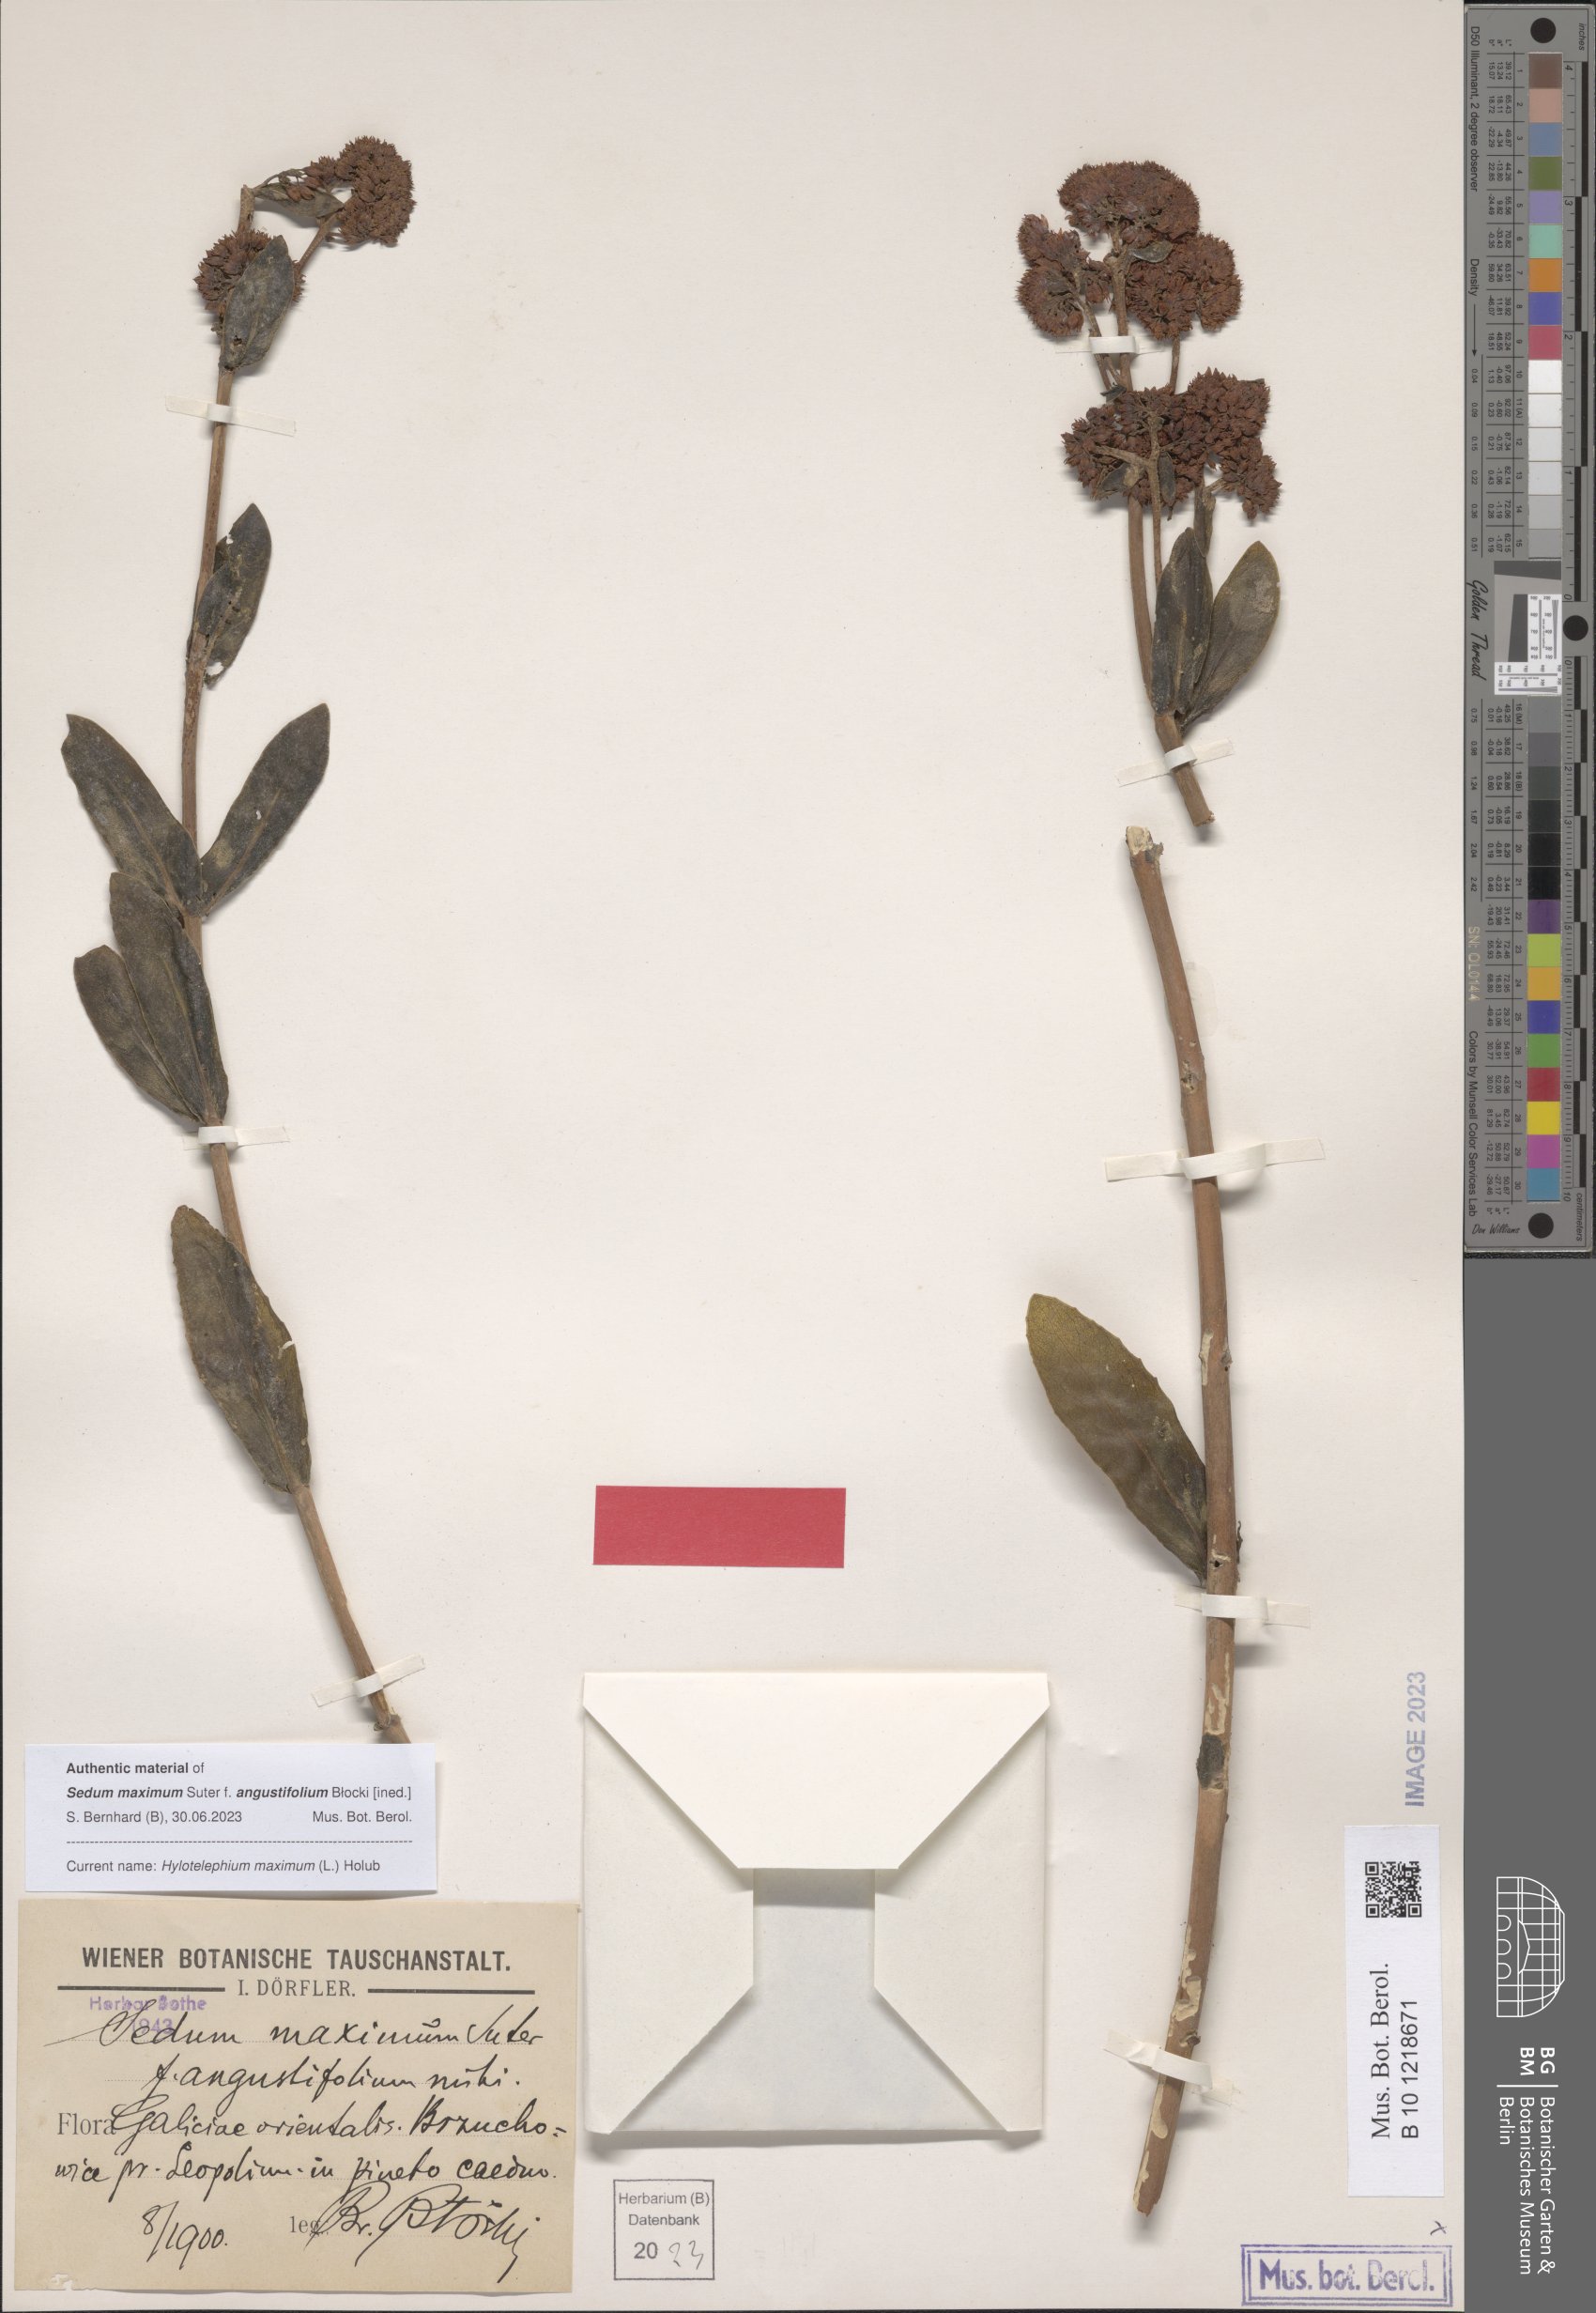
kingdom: Plantae
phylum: Tracheophyta
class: Magnoliopsida
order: Saxifragales
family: Crassulaceae
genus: Hylotelephium
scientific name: Hylotelephium maximum
